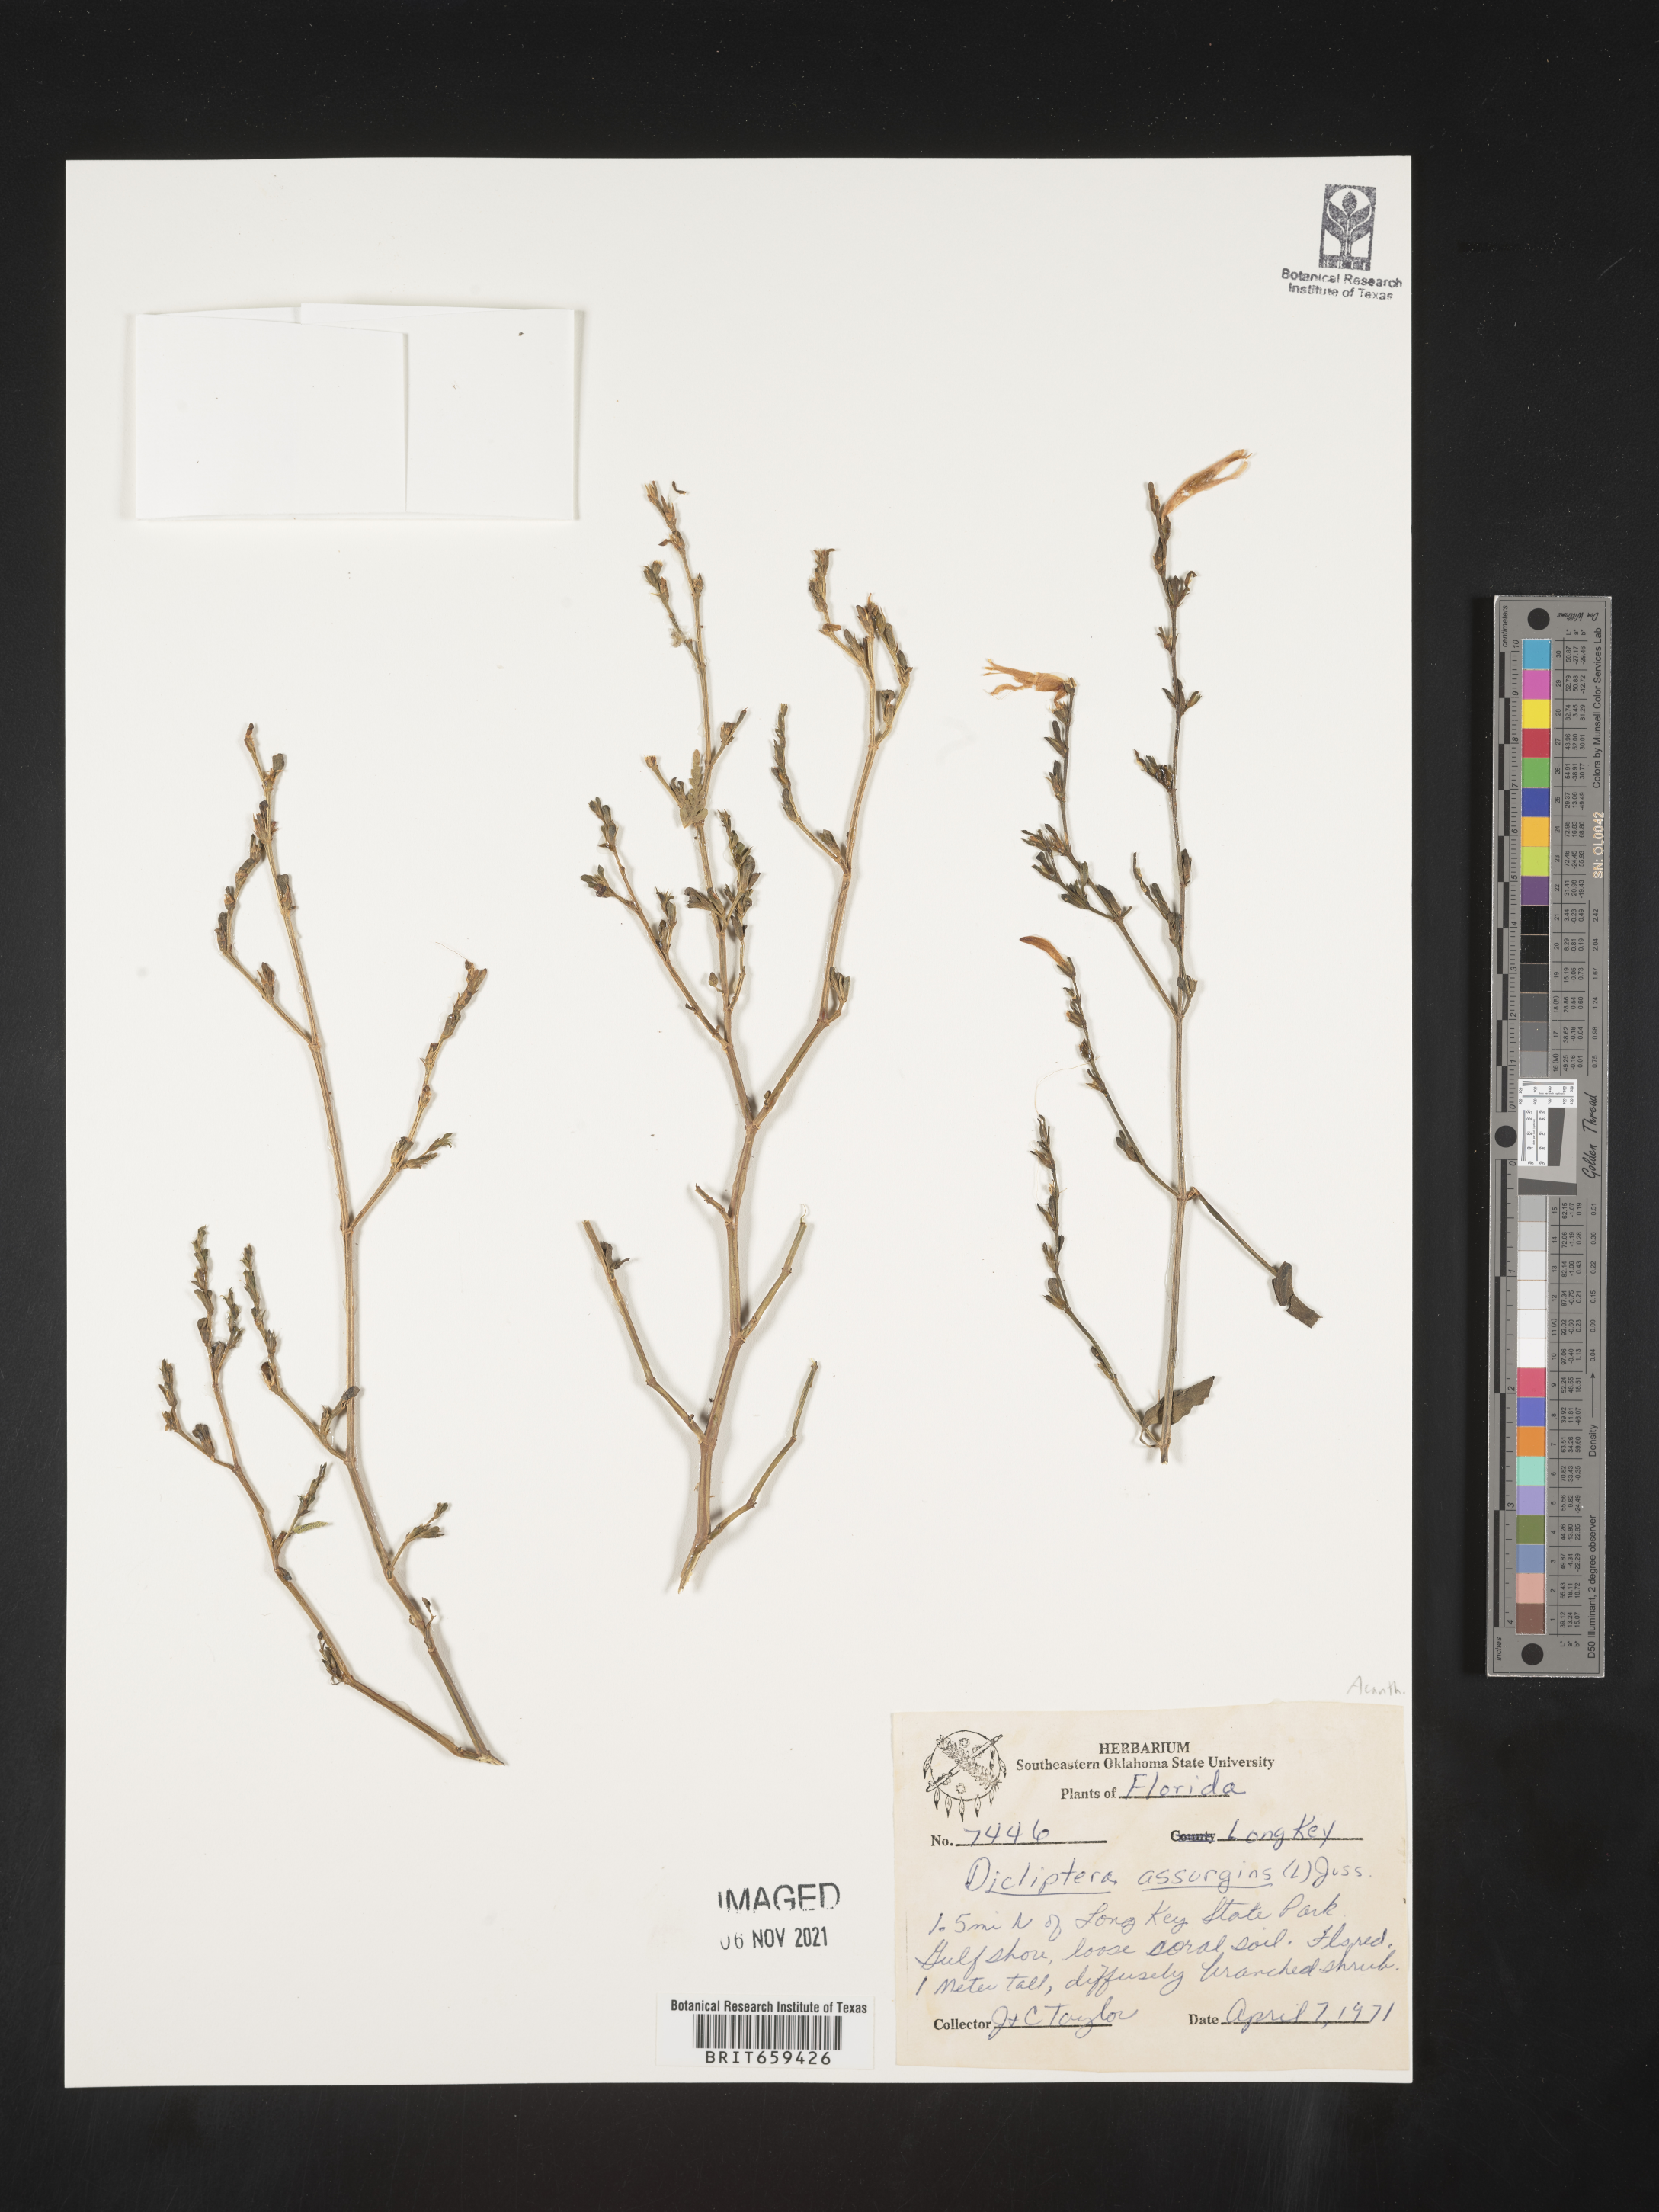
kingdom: Plantae
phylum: Tracheophyta
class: Magnoliopsida
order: Lamiales
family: Acanthaceae
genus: Dicliptera
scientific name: Dicliptera sexangularis
